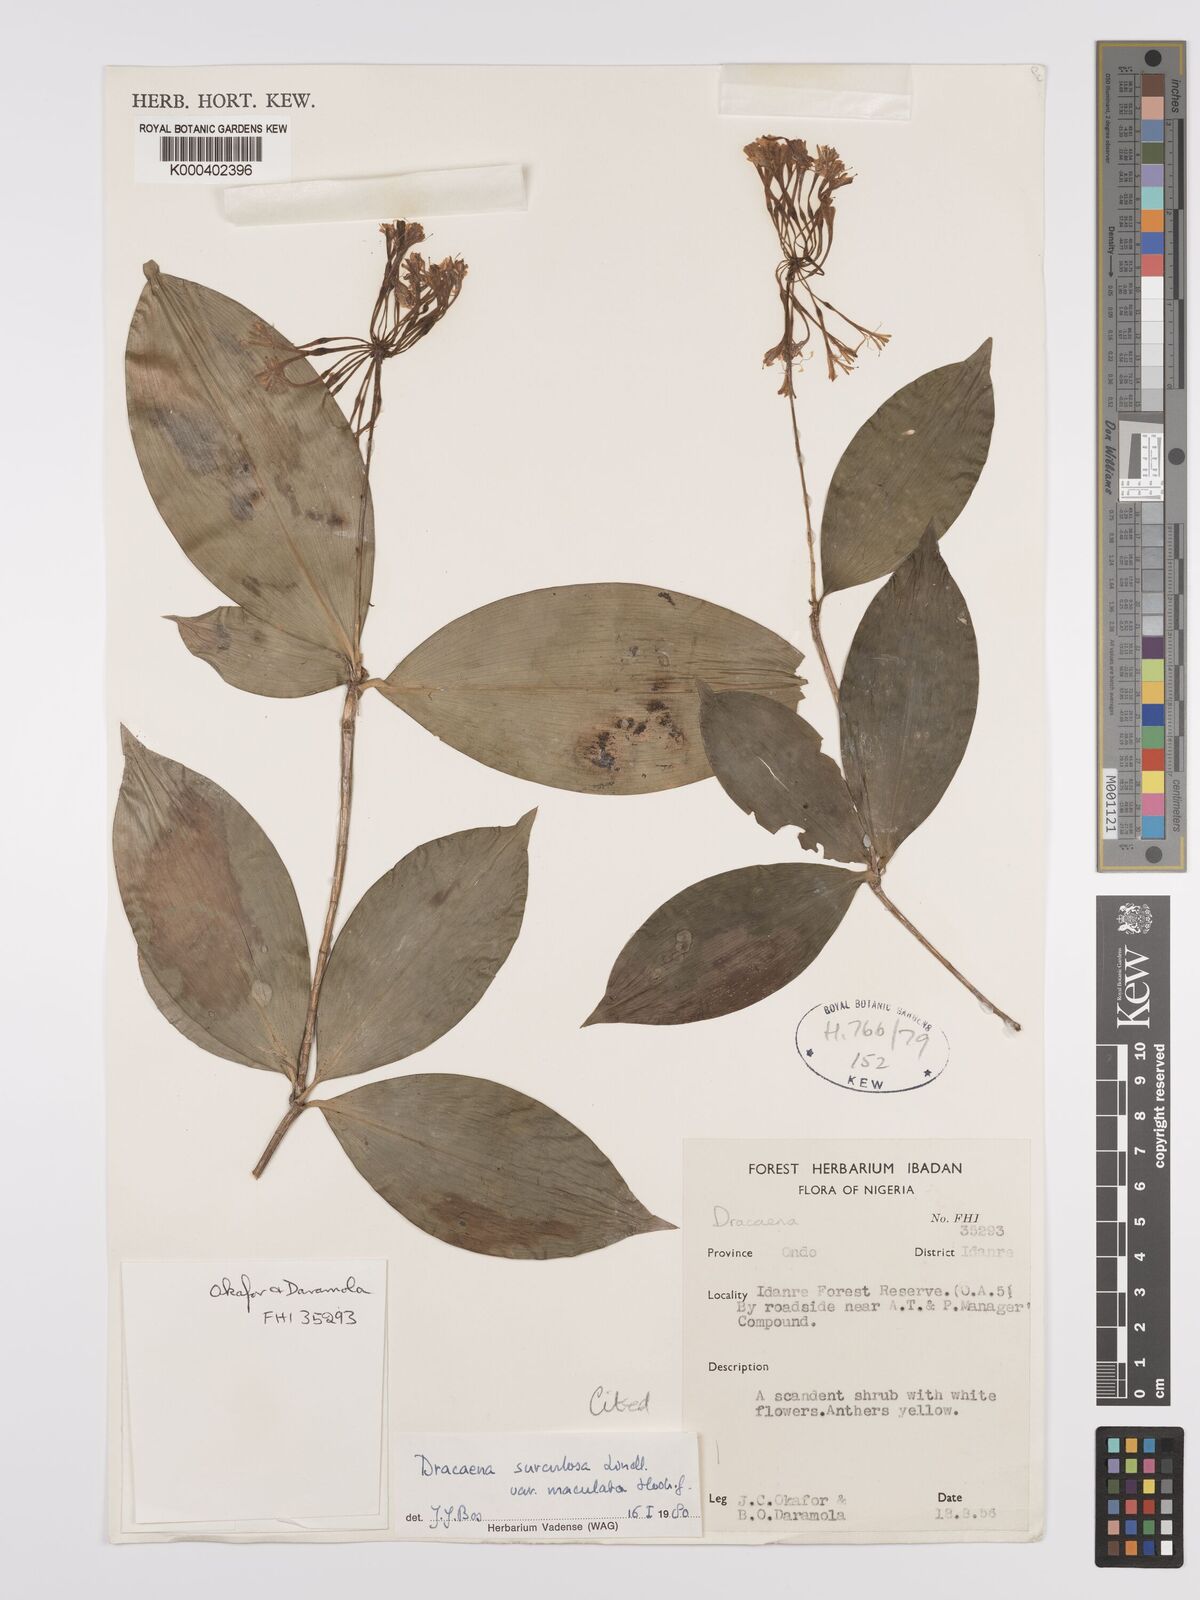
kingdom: Plantae
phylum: Tracheophyta
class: Liliopsida
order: Asparagales
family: Asparagaceae
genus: Dracaena
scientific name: Dracaena surculosa
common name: Spotted dracaena
